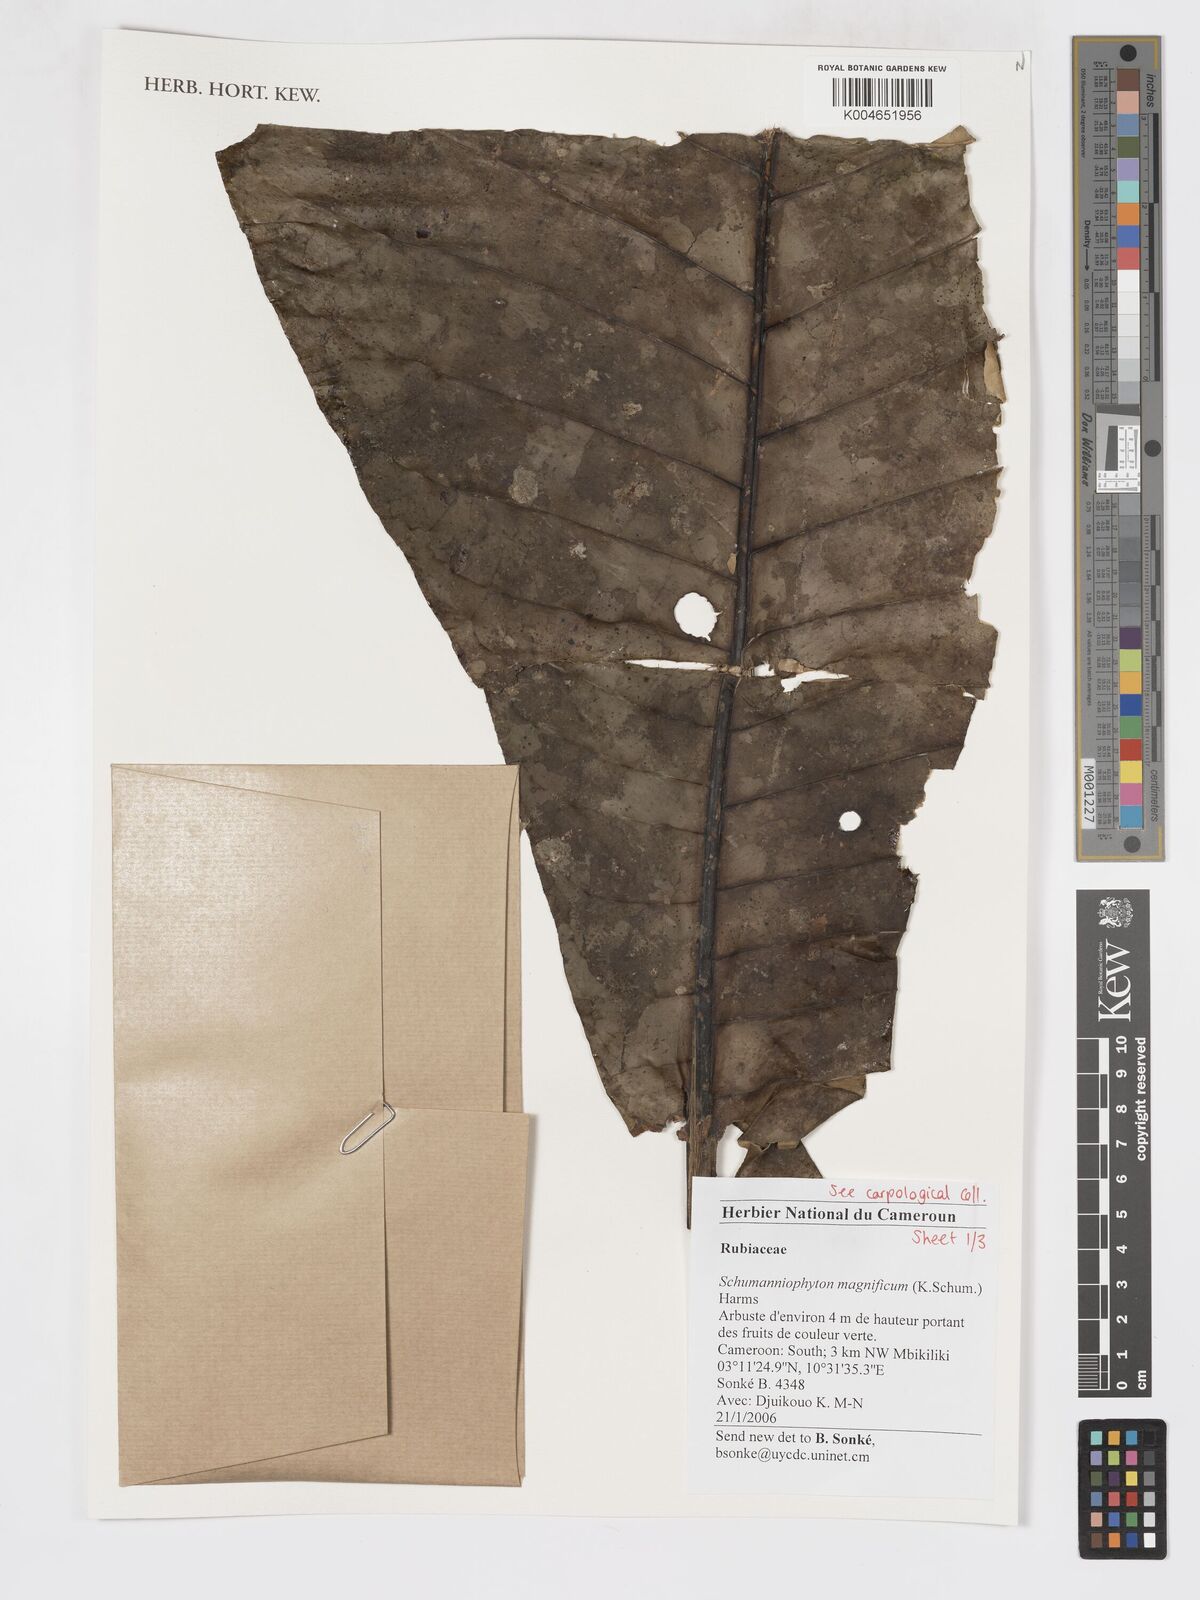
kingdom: Plantae
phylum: Tracheophyta
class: Magnoliopsida
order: Gentianales
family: Rubiaceae
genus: Schumanniophyton
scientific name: Schumanniophyton magnificum
